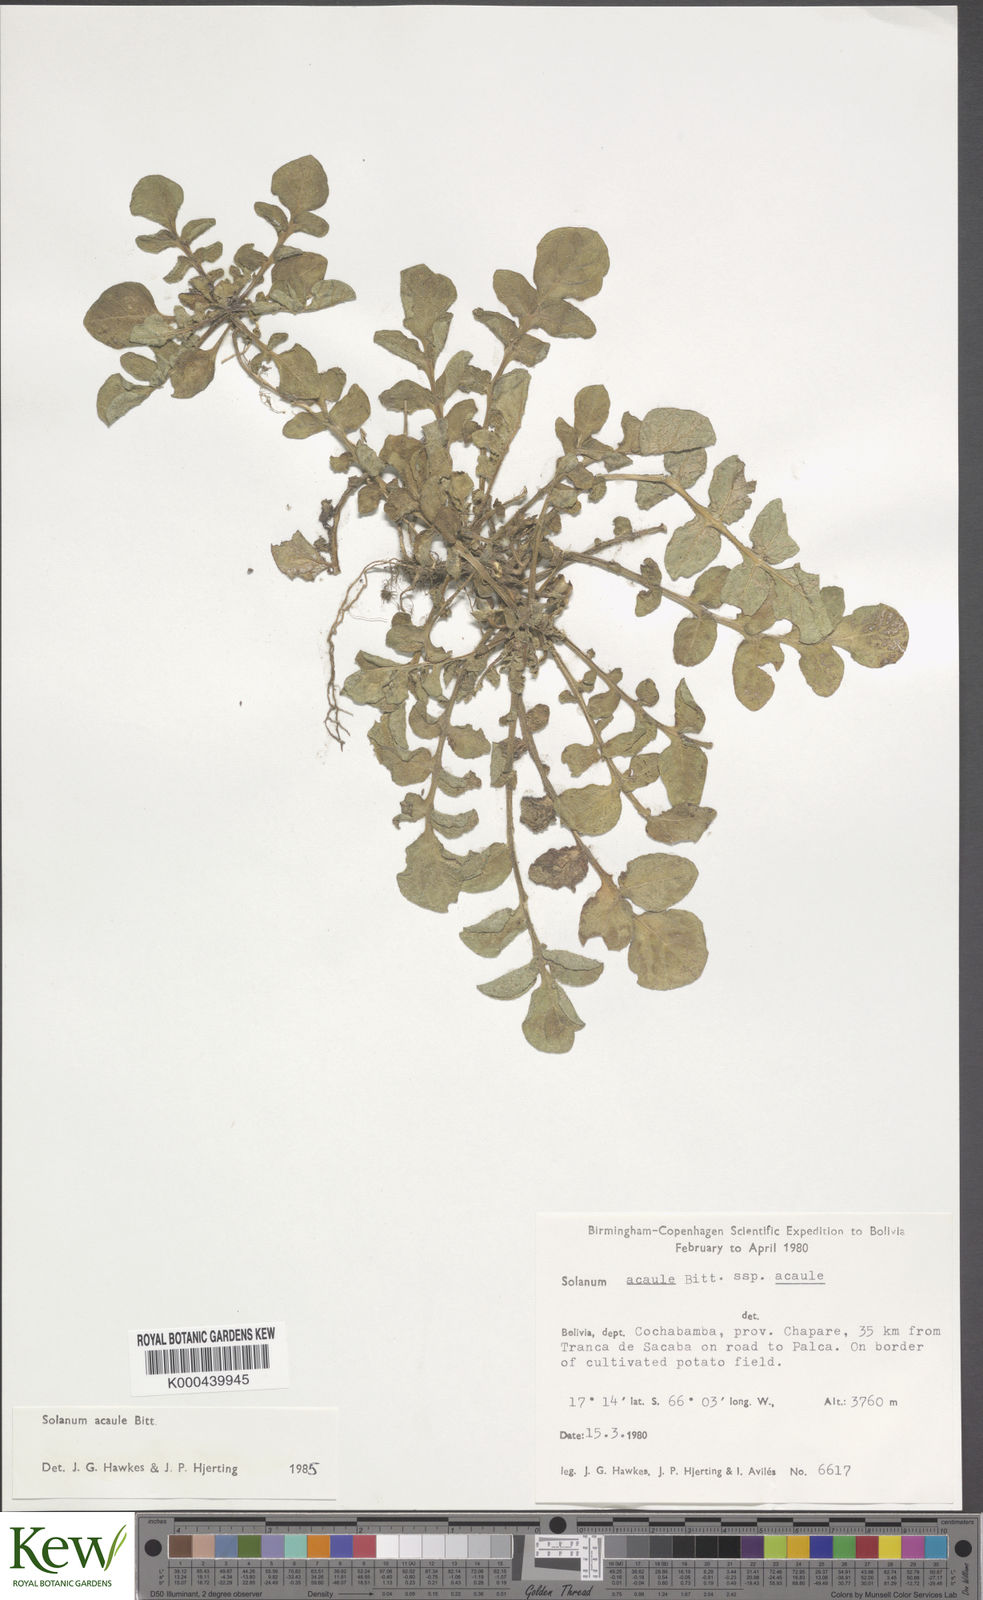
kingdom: Plantae
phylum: Tracheophyta
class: Magnoliopsida
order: Solanales
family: Solanaceae
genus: Solanum
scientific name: Solanum acaule
